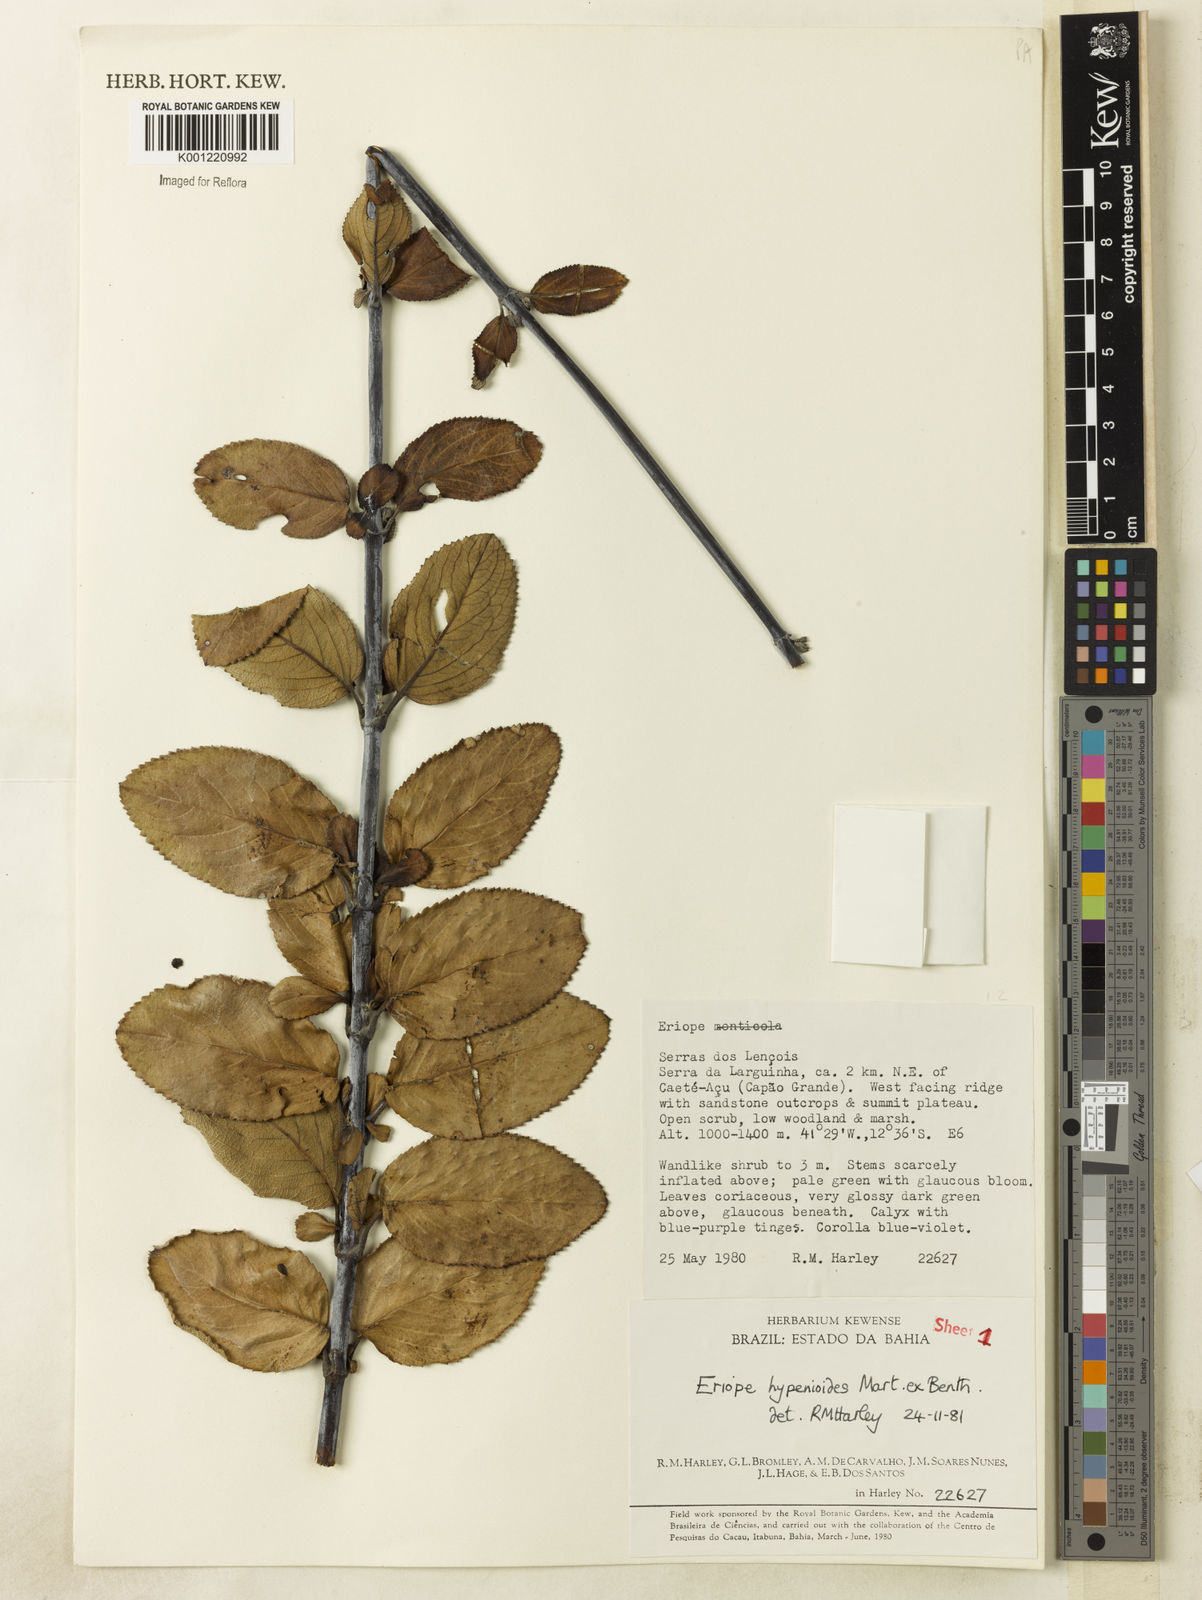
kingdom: Plantae
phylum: Tracheophyta
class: Magnoliopsida
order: Lamiales
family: Lamiaceae
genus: Eriope
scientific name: Eriope hypenioides
